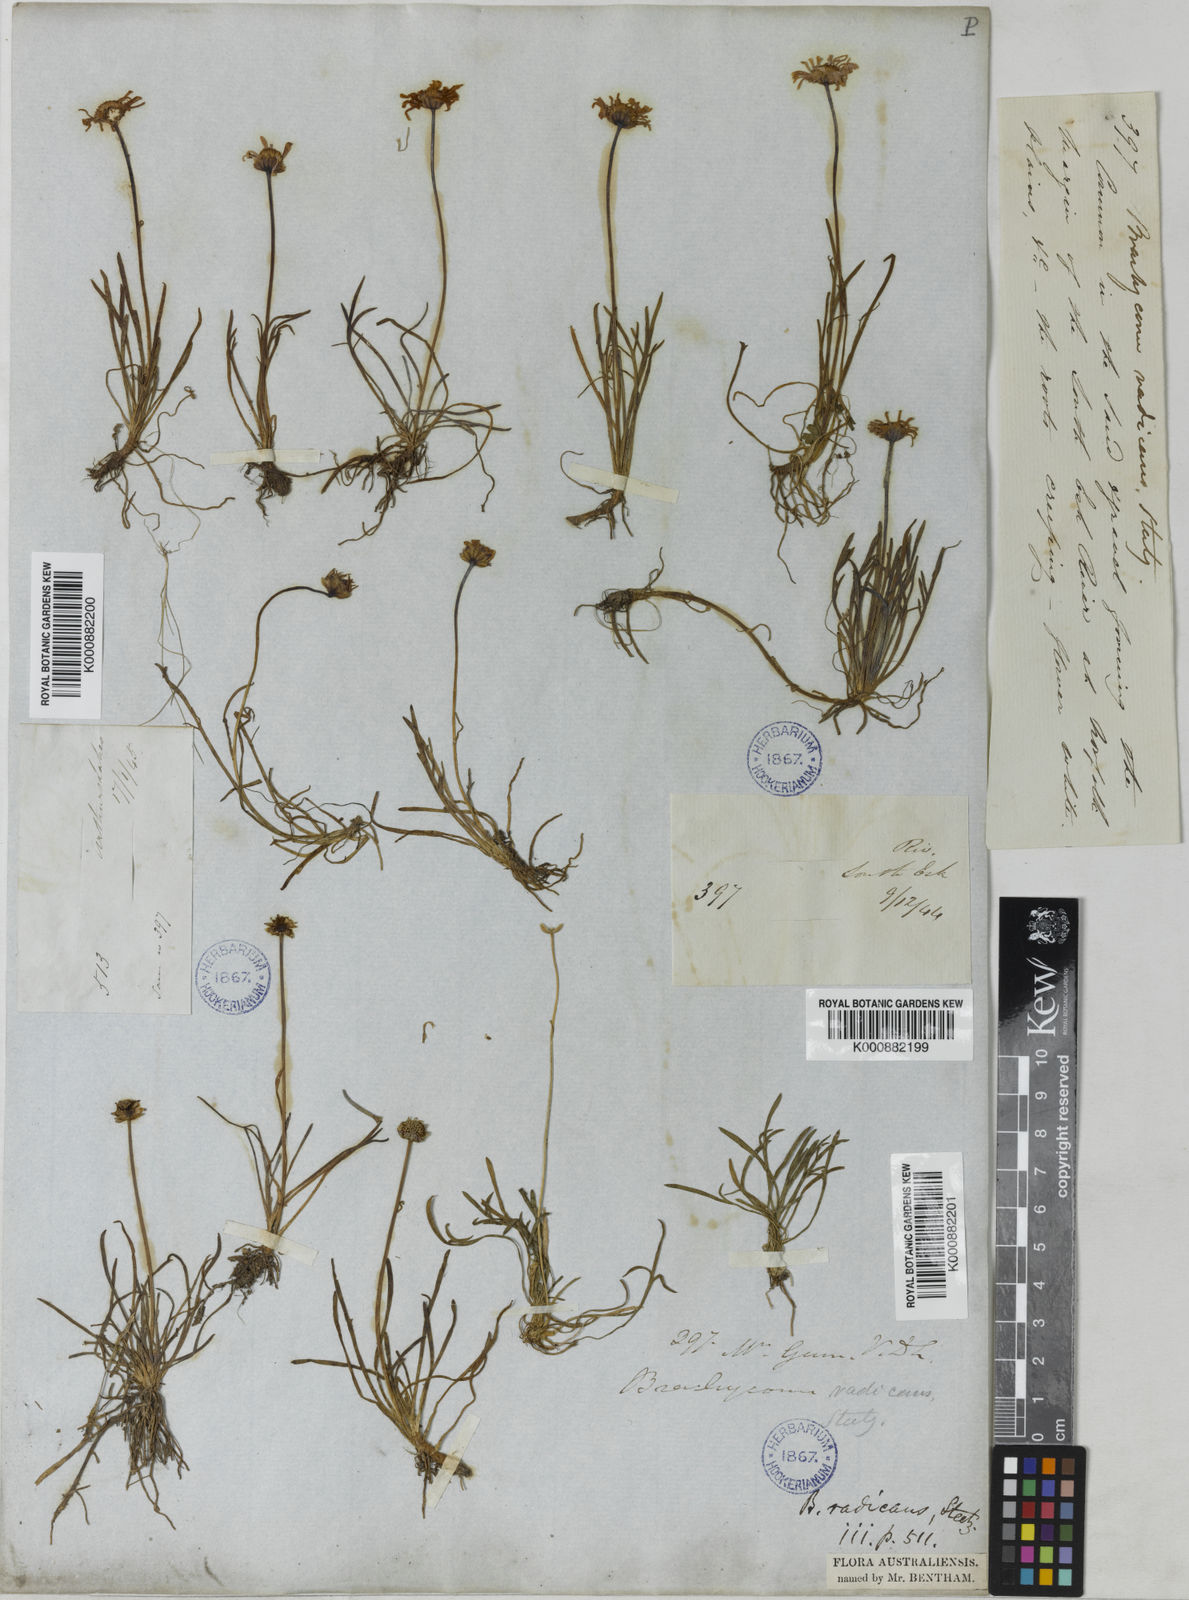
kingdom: Plantae
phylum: Tracheophyta
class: Magnoliopsida
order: Asterales
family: Asteraceae
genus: Brachyscome
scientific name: Brachyscome radicans
